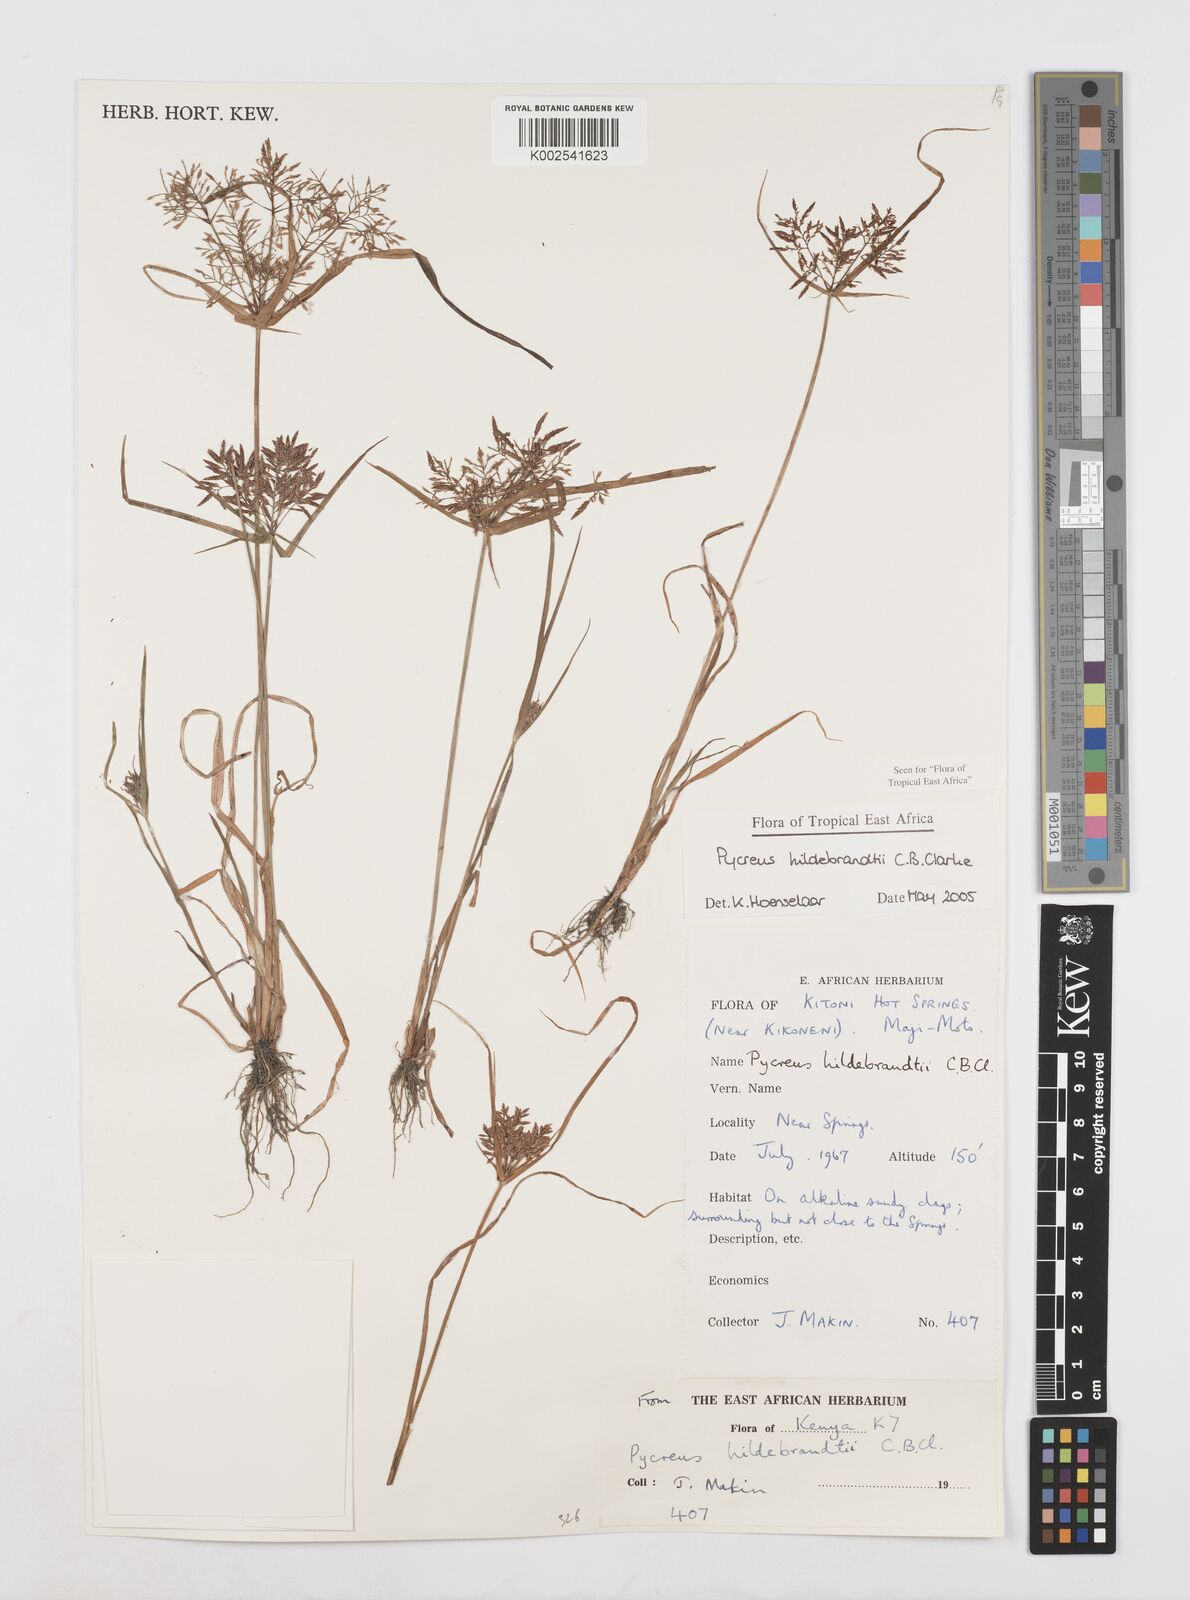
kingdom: Plantae
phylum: Tracheophyta
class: Liliopsida
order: Poales
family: Cyperaceae
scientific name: Cyperaceae
